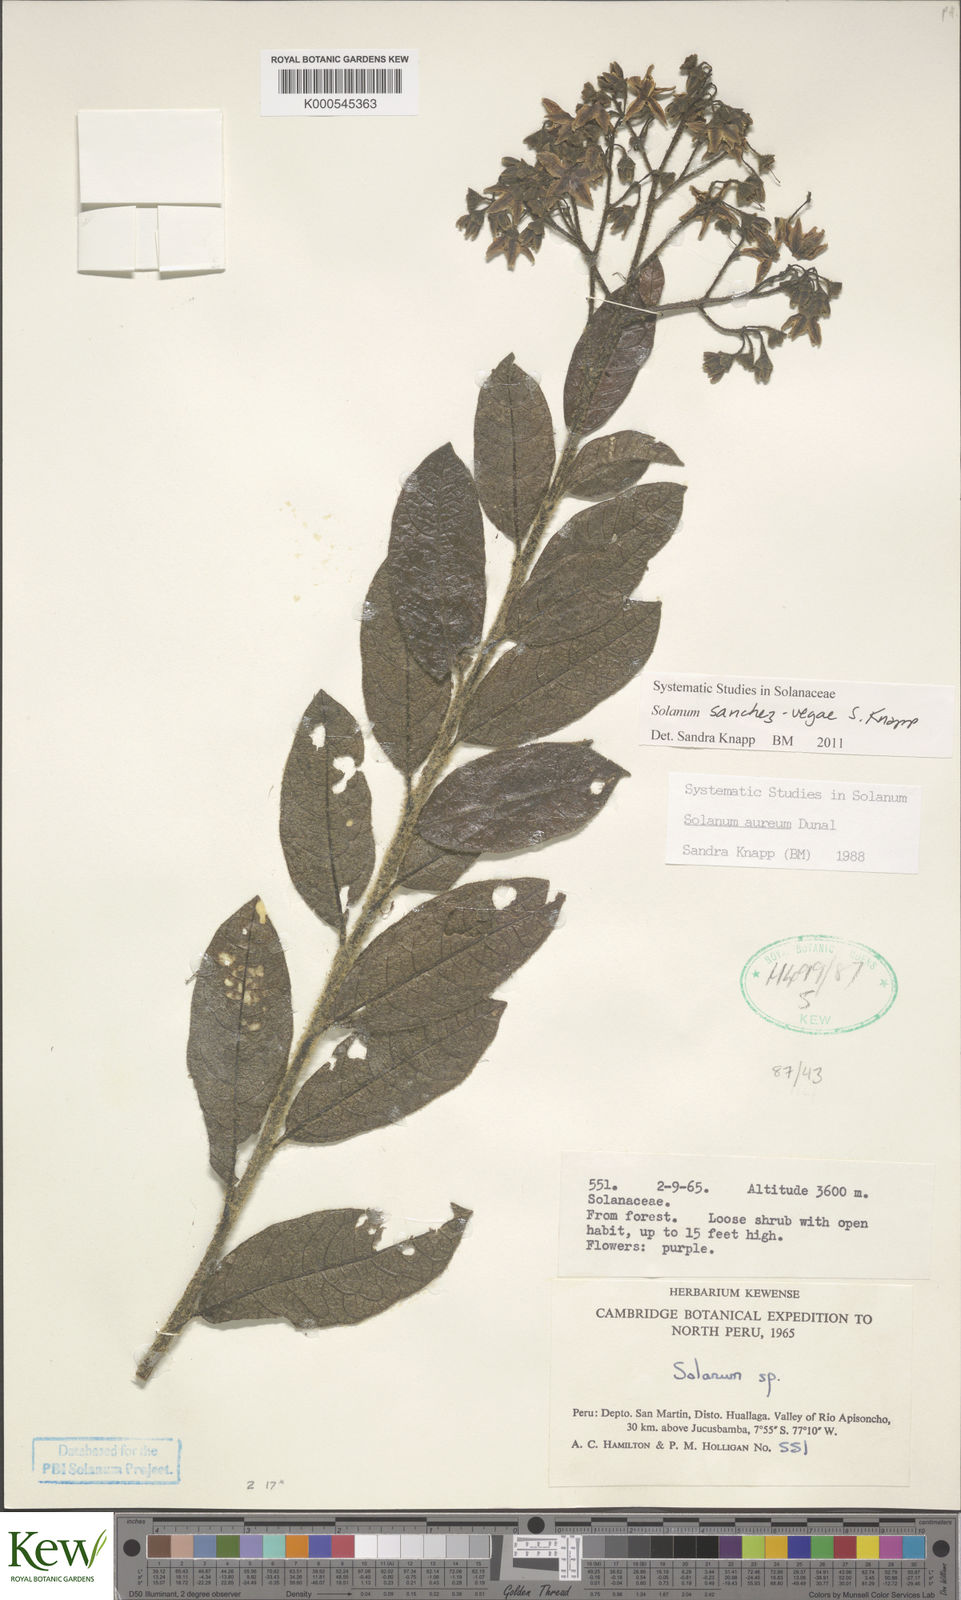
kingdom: Plantae
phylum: Tracheophyta
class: Magnoliopsida
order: Solanales
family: Solanaceae
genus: Solanum
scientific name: Solanum sanchez-vegae
